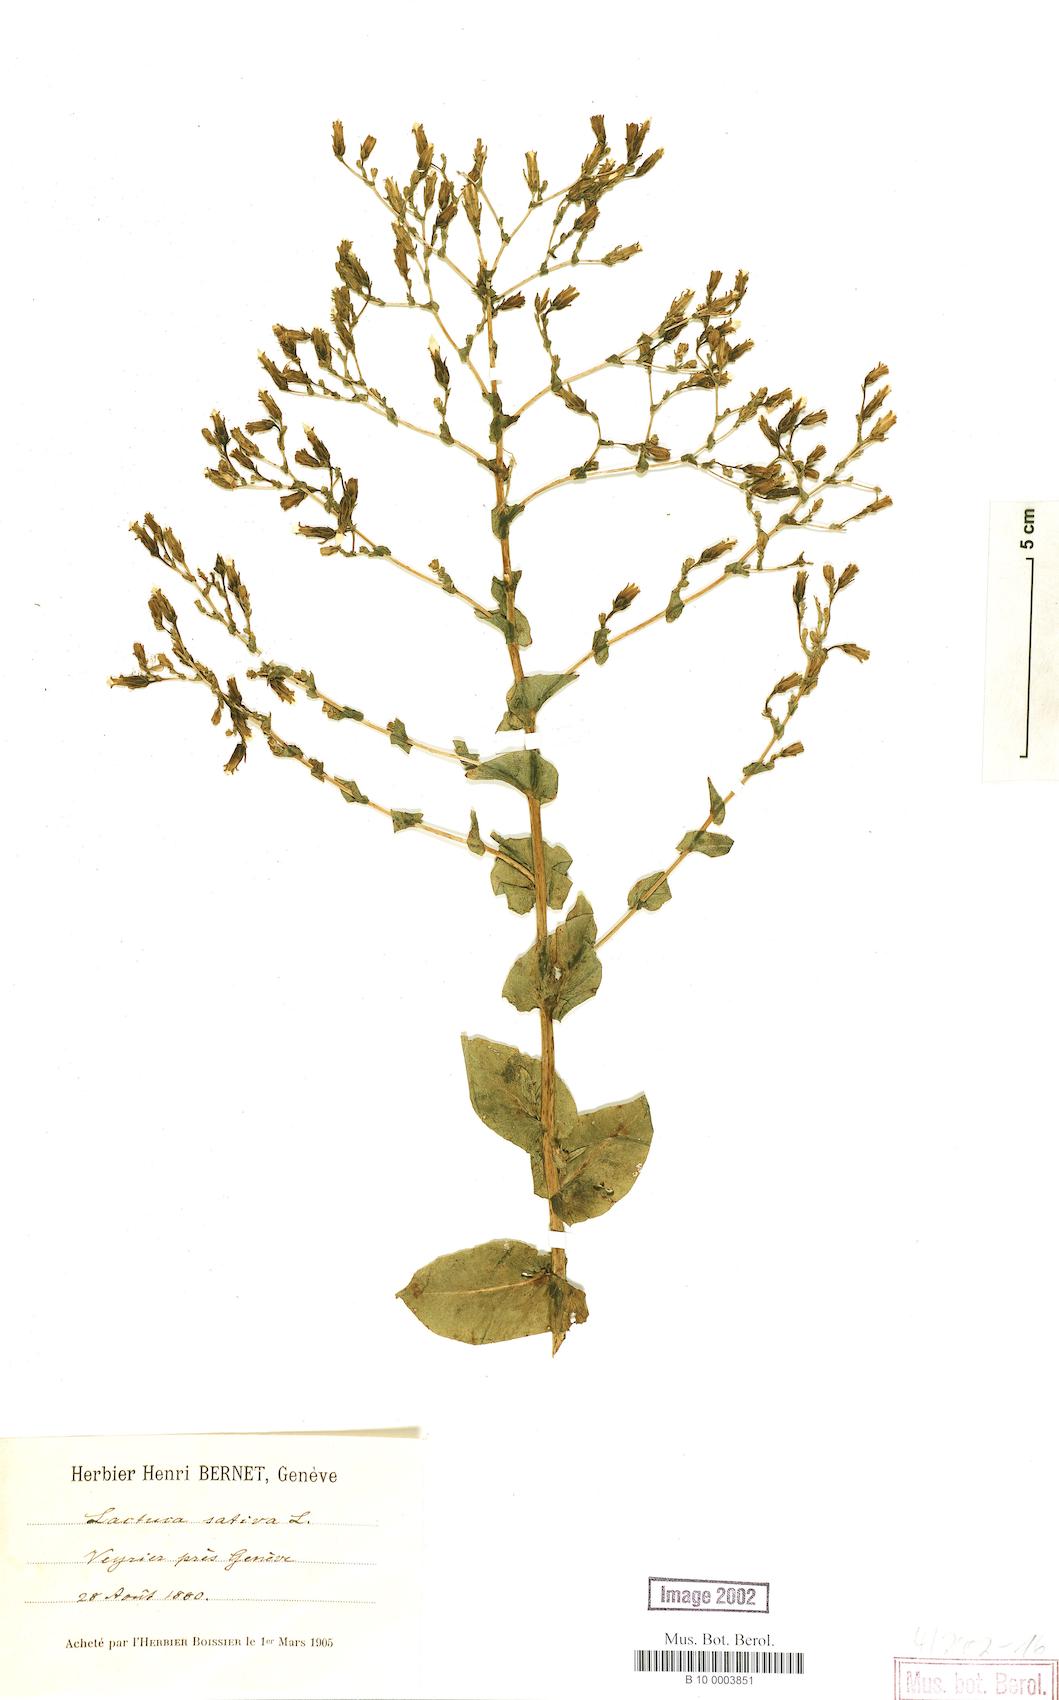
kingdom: Plantae
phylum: Tracheophyta
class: Magnoliopsida
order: Asterales
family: Asteraceae
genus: Lactuca
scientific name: Lactuca sativa
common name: Garden lettuce
